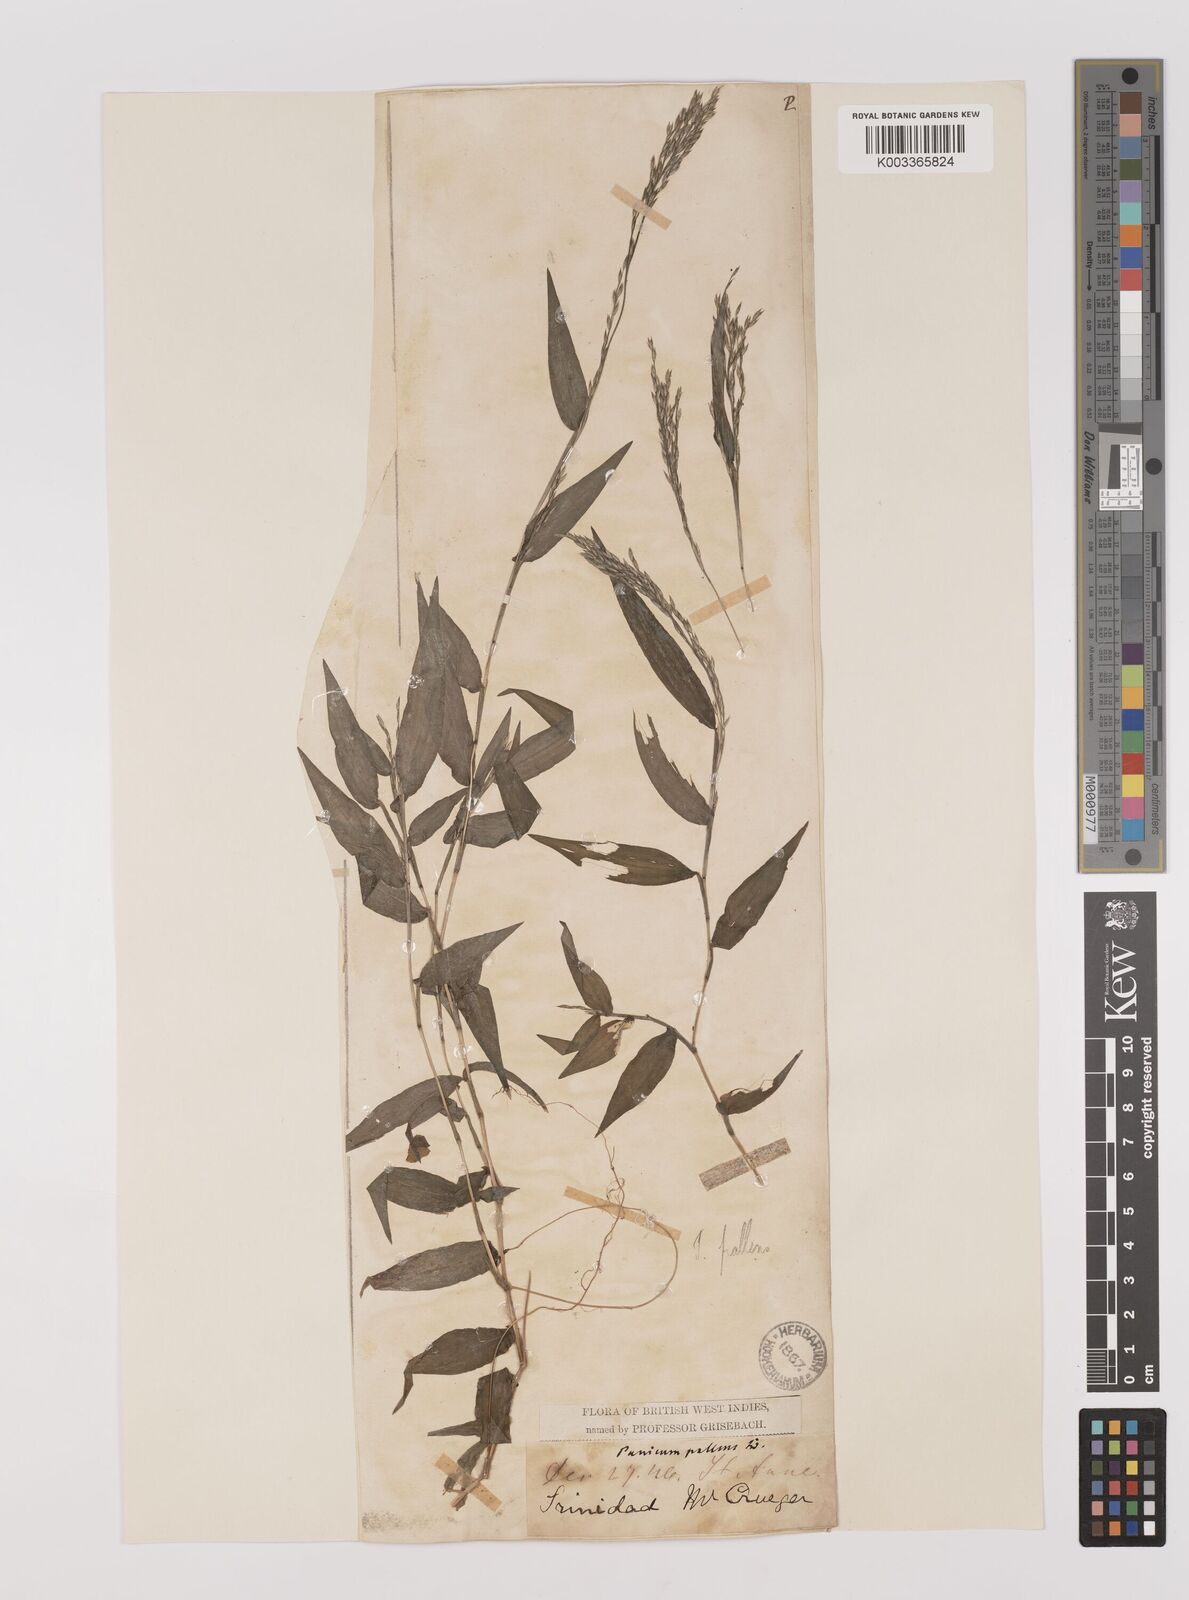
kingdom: Plantae
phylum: Tracheophyta
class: Liliopsida
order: Poales
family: Poaceae
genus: Ichnanthus
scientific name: Ichnanthus pallens
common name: Water grass
